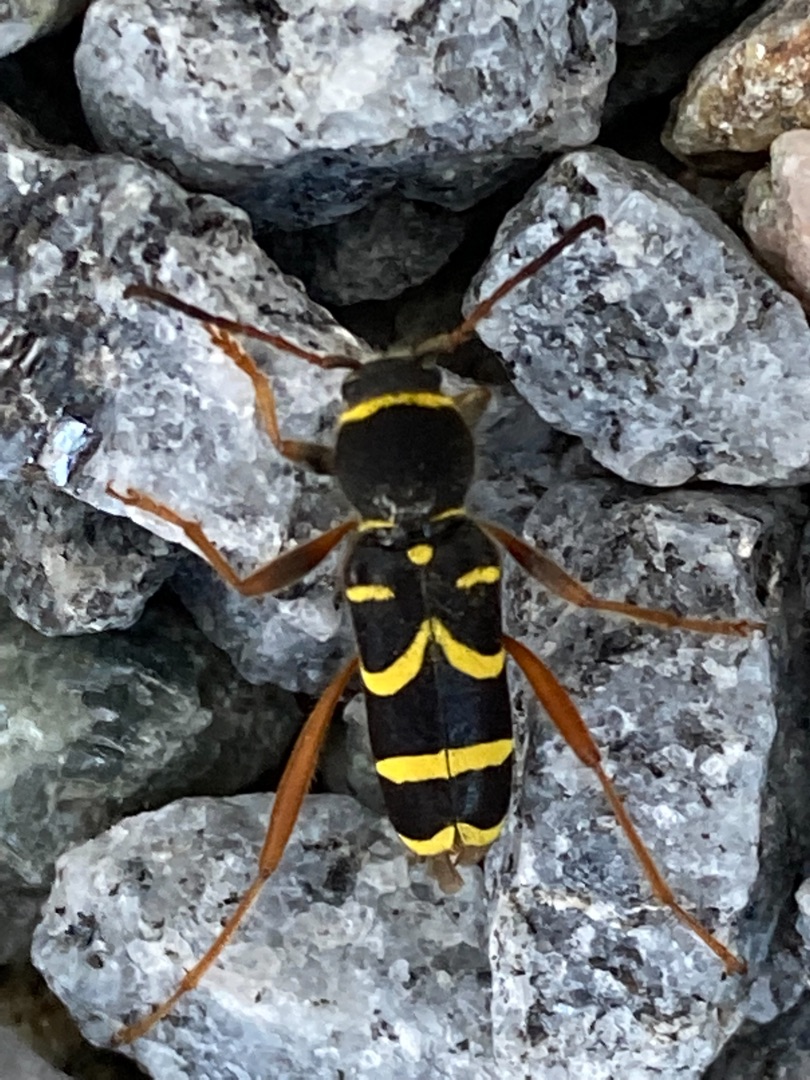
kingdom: Animalia
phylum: Arthropoda
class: Insecta
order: Coleoptera
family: Cerambycidae
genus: Clytus
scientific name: Clytus arietis
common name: Lille hvepsebuk
